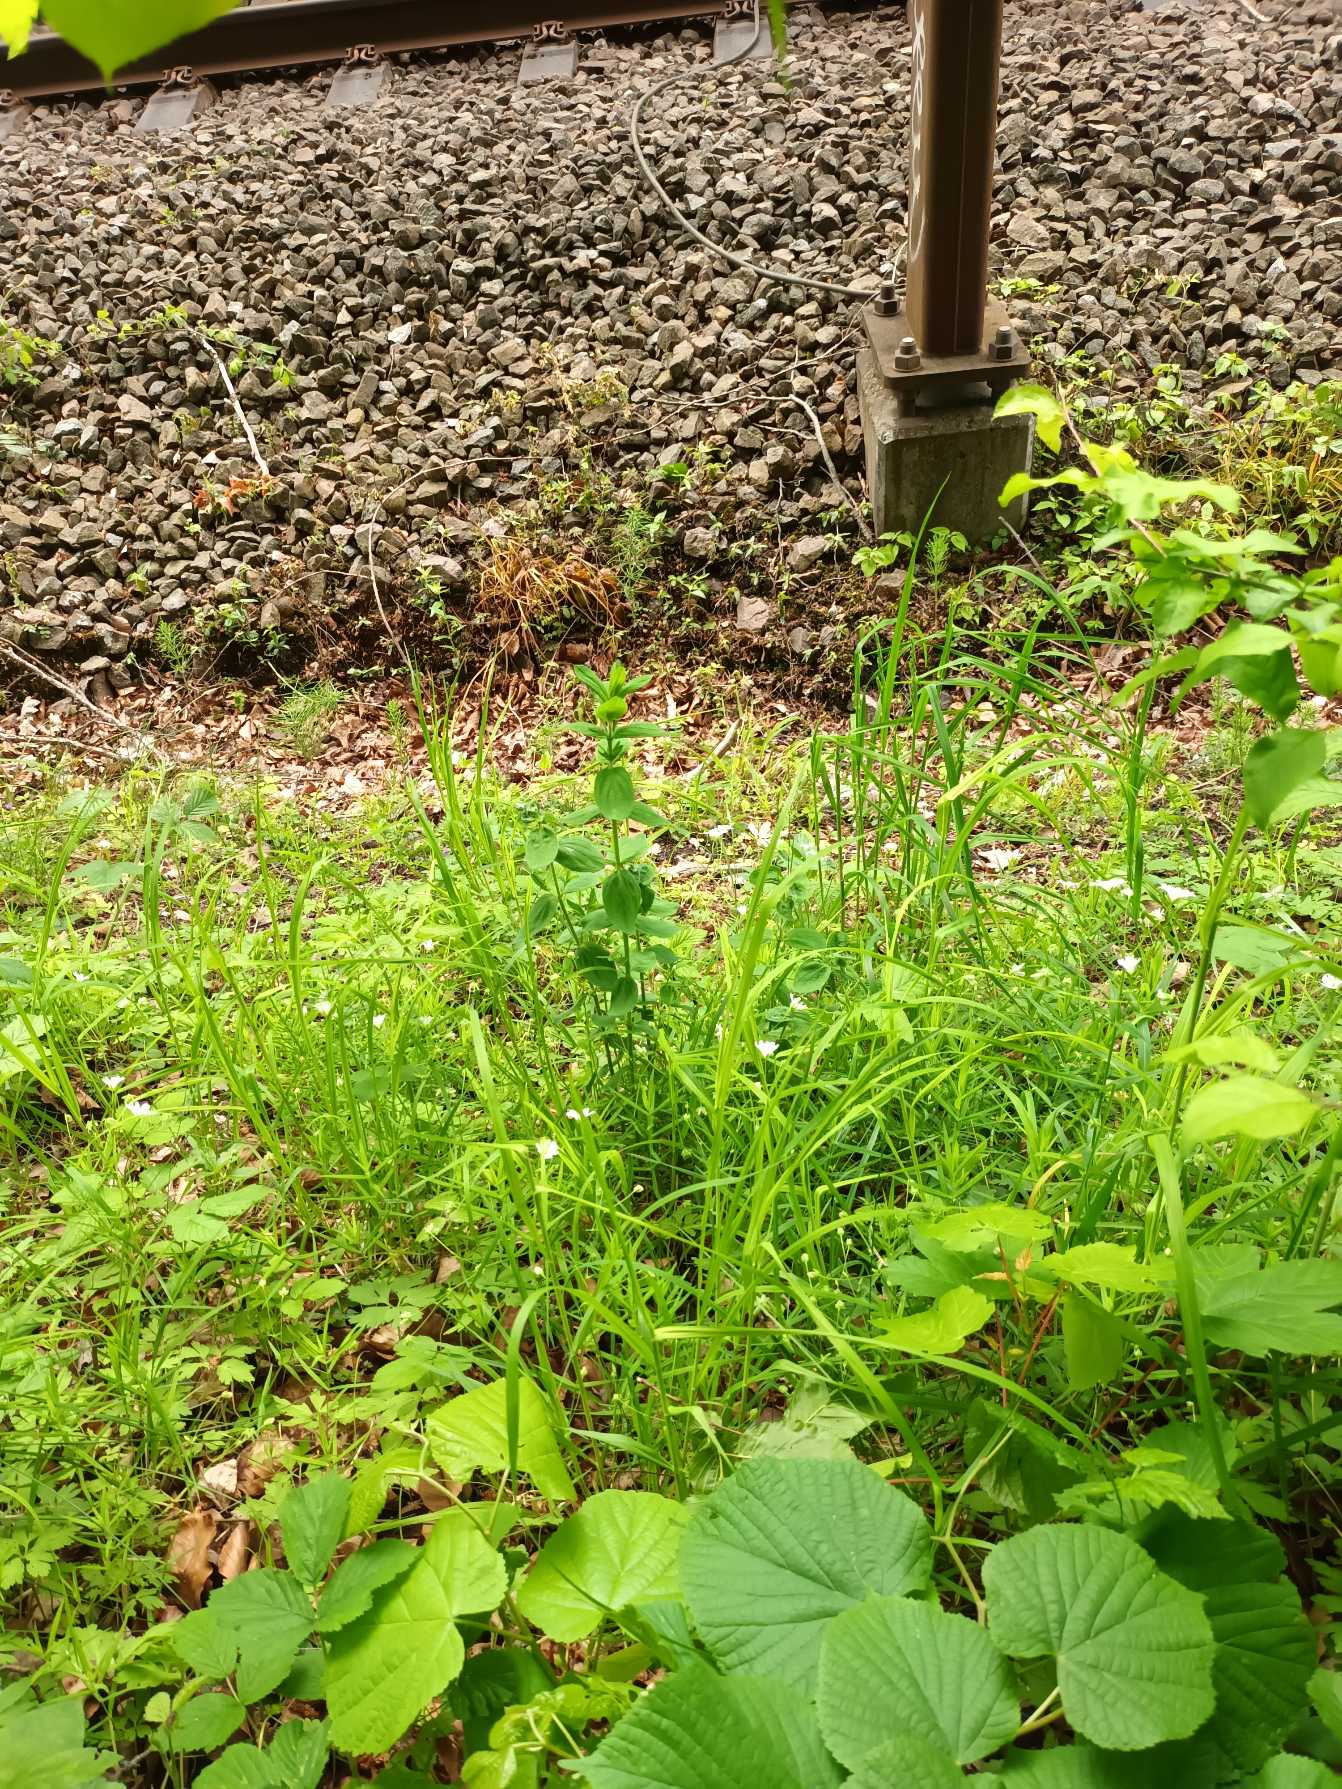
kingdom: Plantae
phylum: Tracheophyta
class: Magnoliopsida
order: Malpighiales
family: Hypericaceae
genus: Hypericum
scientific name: Hypericum hirsutum
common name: Lådden perikon
